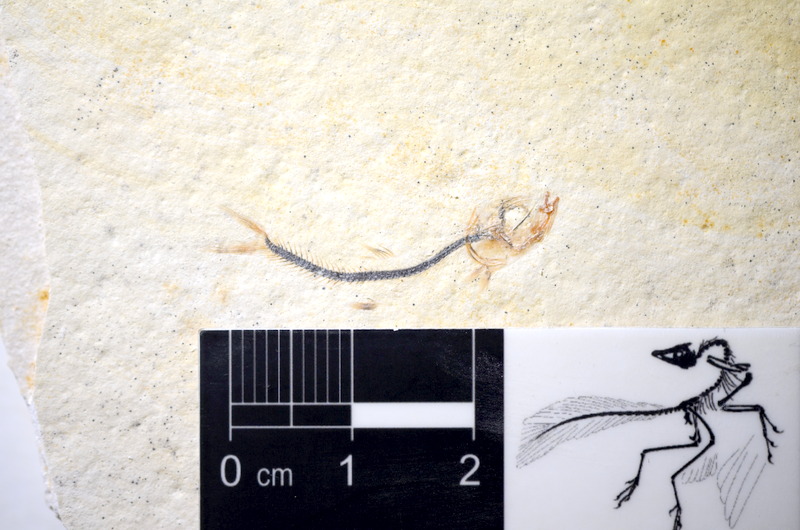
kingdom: Animalia
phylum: Chordata
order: Salmoniformes
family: Orthogonikleithridae
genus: Orthogonikleithrus
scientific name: Orthogonikleithrus hoelli
